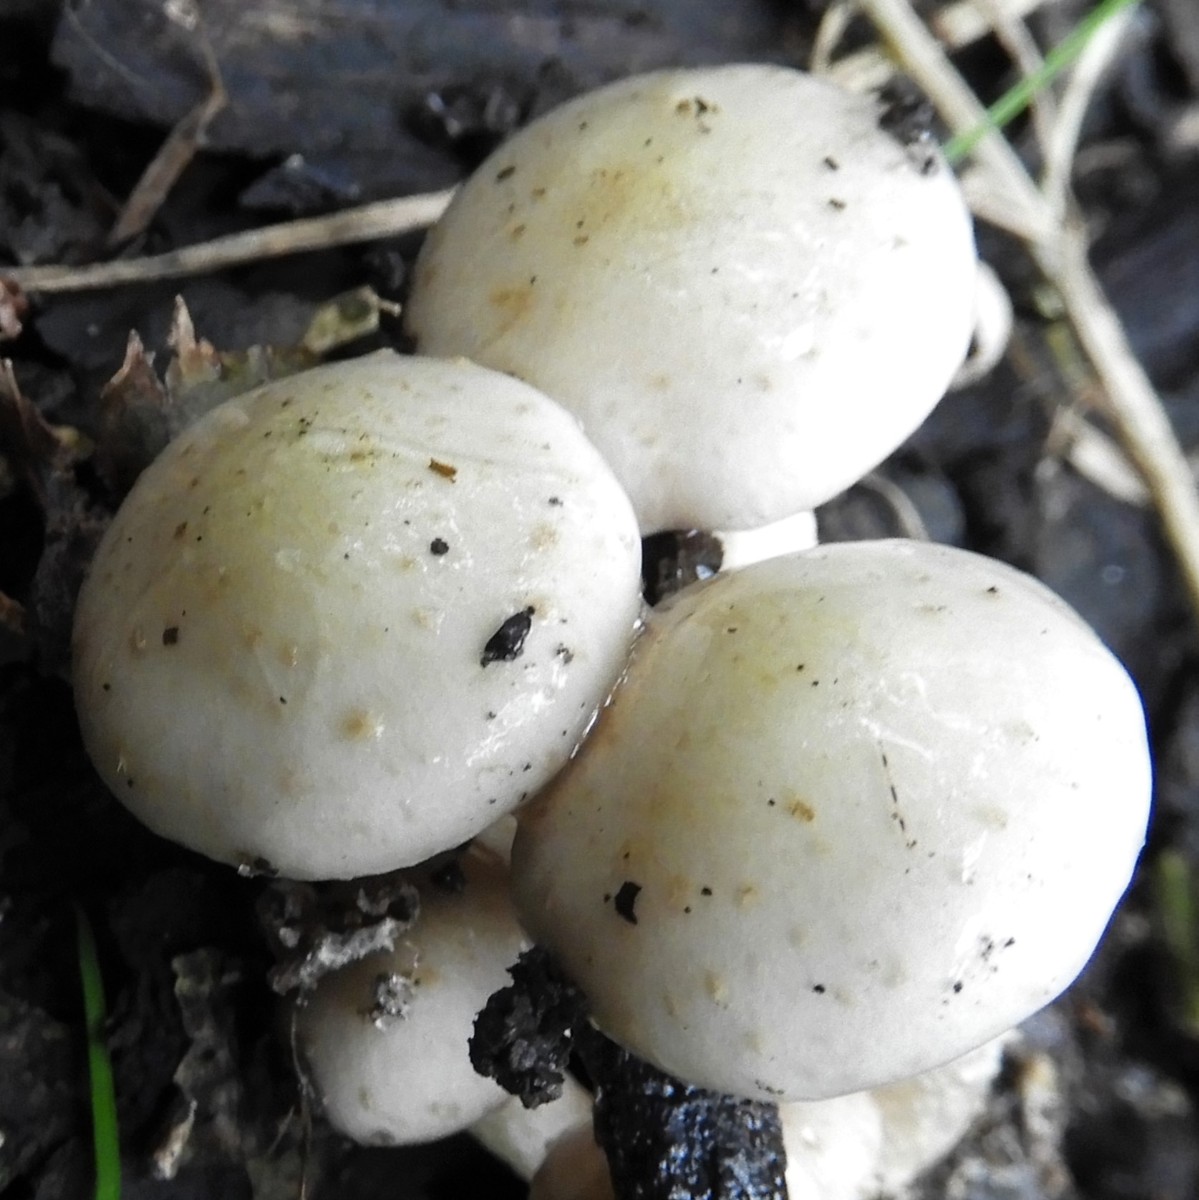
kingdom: Fungi
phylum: Basidiomycota
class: Agaricomycetes
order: Agaricales
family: Strophariaceae
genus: Pholiota
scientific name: Pholiota gummosa
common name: grøngul skælhat
